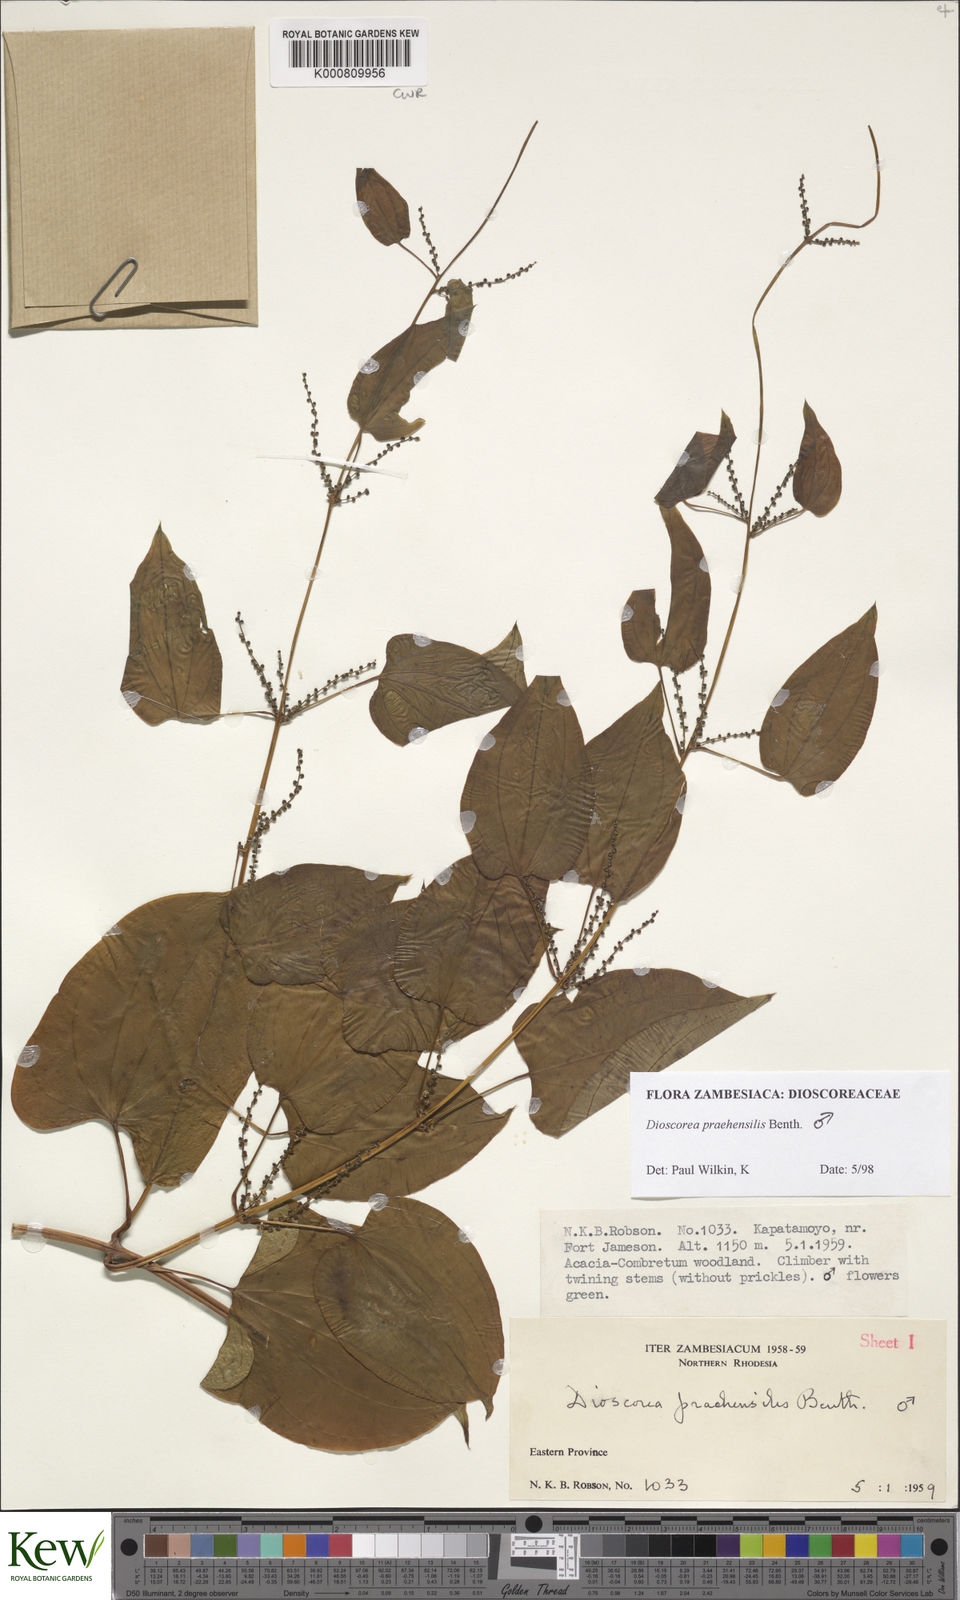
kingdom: Plantae
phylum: Tracheophyta
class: Liliopsida
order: Dioscoreales
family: Dioscoreaceae
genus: Dioscorea
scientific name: Dioscorea praehensilis
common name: Bush yam
